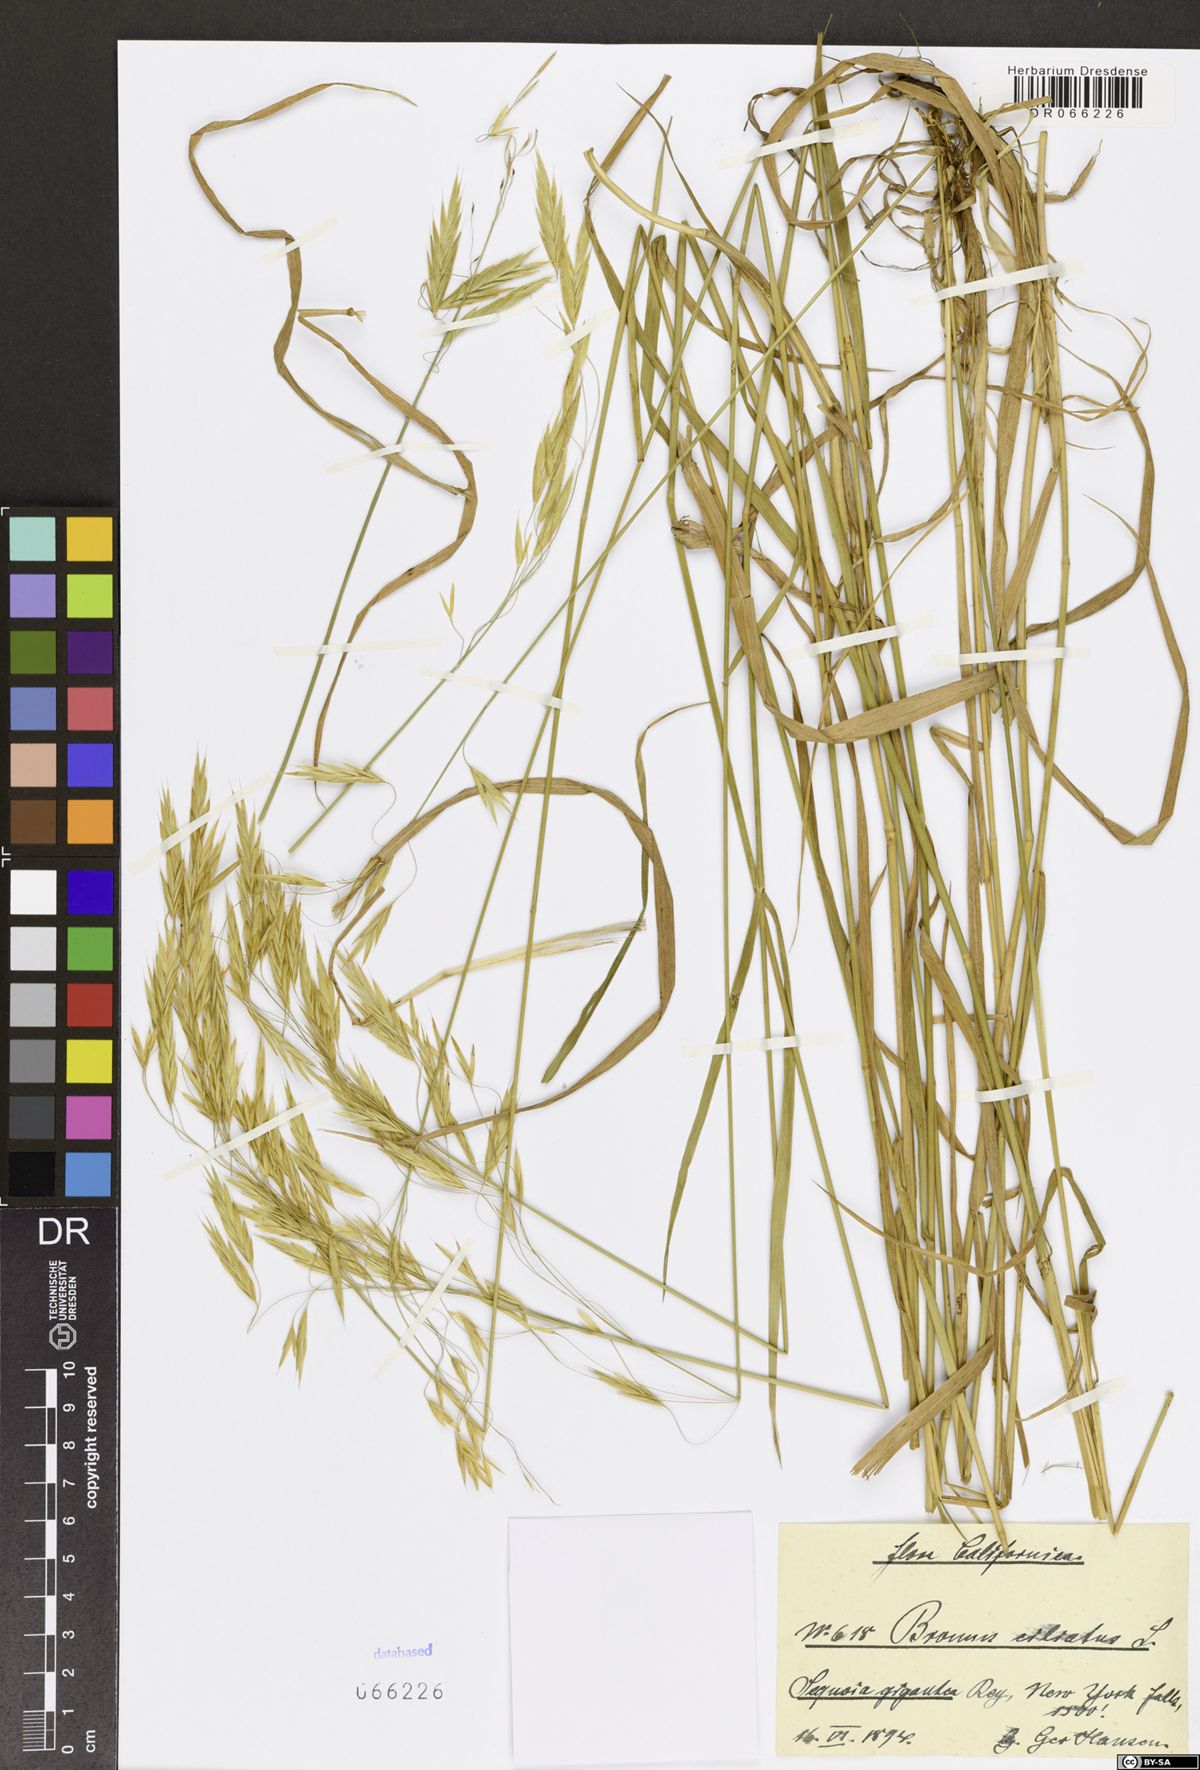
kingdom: Plantae
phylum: Tracheophyta
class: Liliopsida
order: Poales
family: Poaceae
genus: Bromus
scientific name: Bromus ciliatus
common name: Fringe brome
